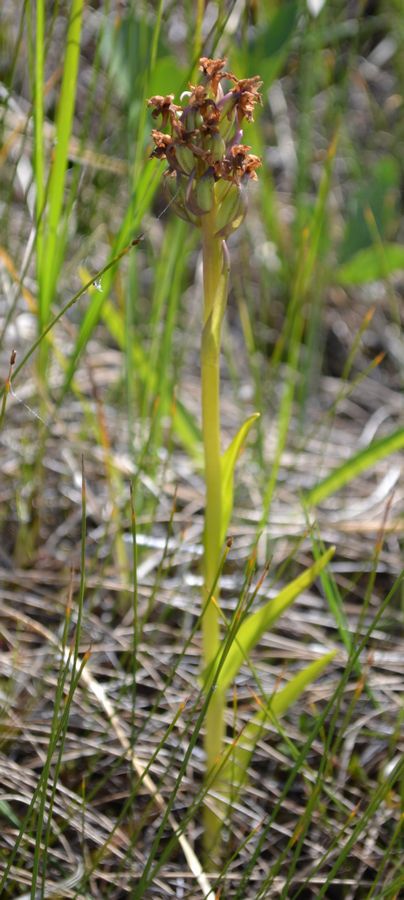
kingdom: Plantae
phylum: Tracheophyta
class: Liliopsida
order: Asparagales
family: Orchidaceae
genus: Dactylorhiza
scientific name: Dactylorhiza incarnata
